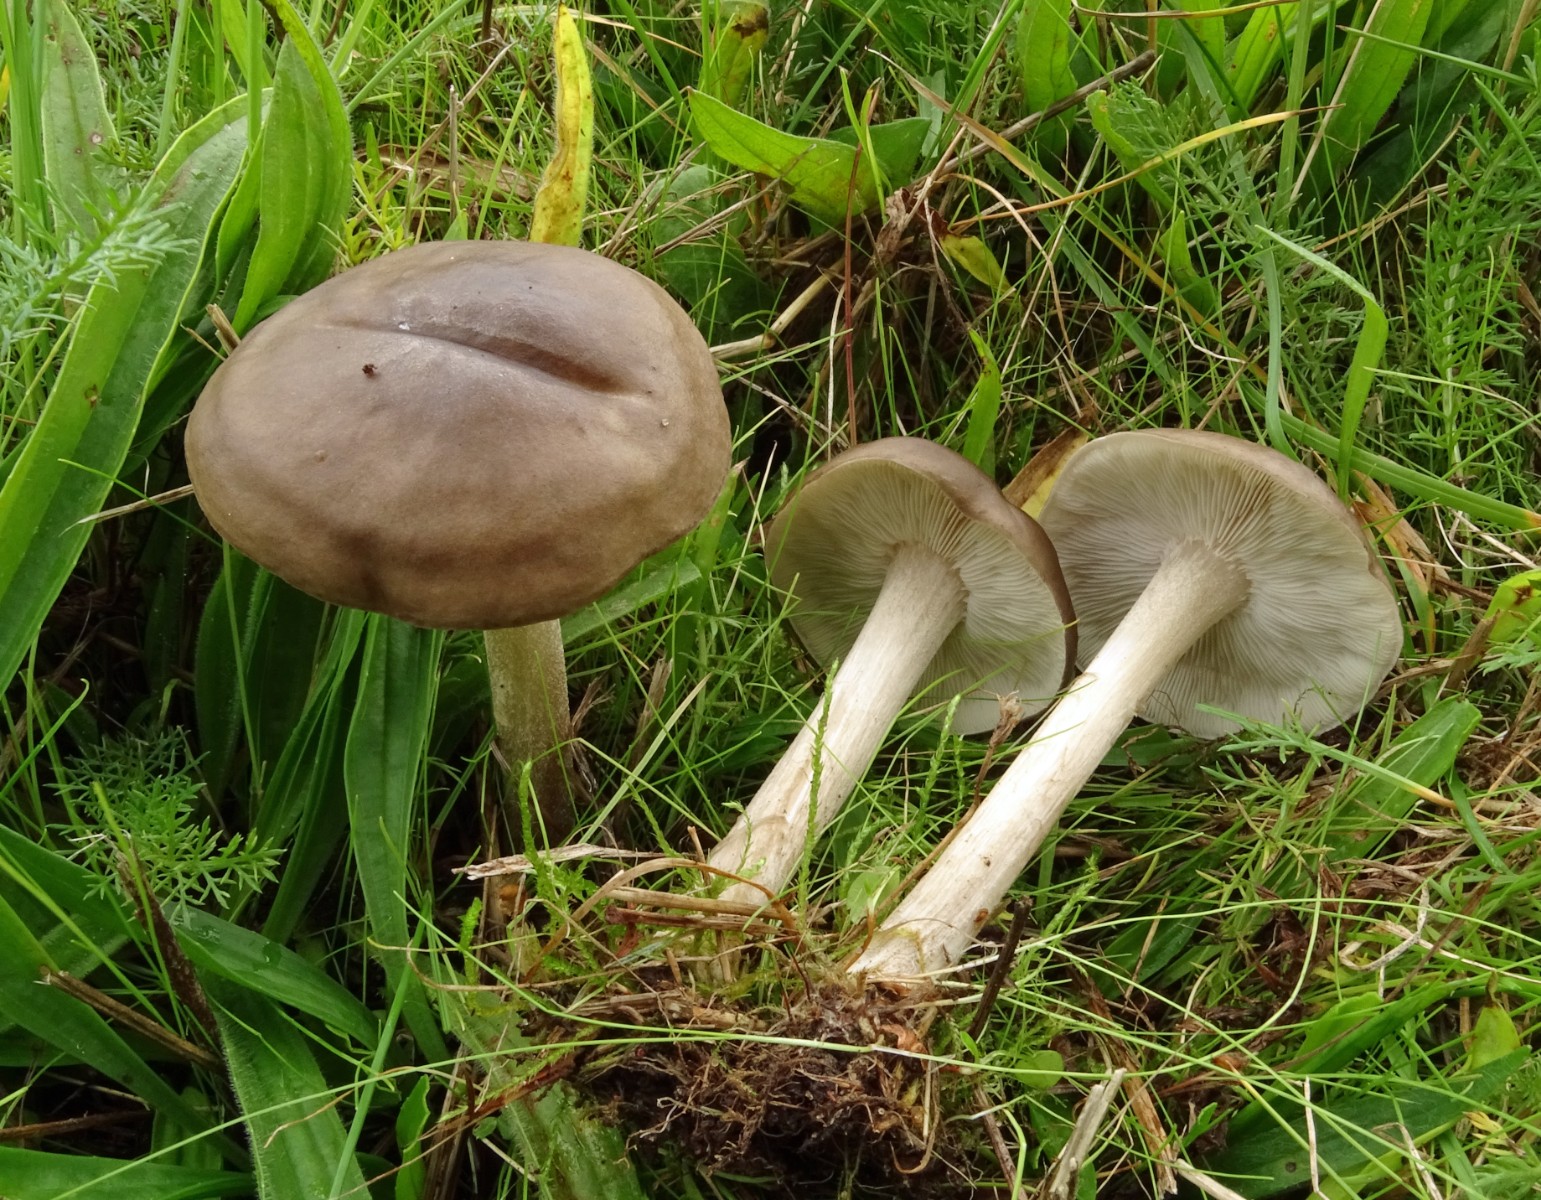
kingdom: Fungi
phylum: Basidiomycota
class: Agaricomycetes
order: Agaricales
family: Tricholomataceae
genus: Melanoleuca
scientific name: Melanoleuca
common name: munkehat
